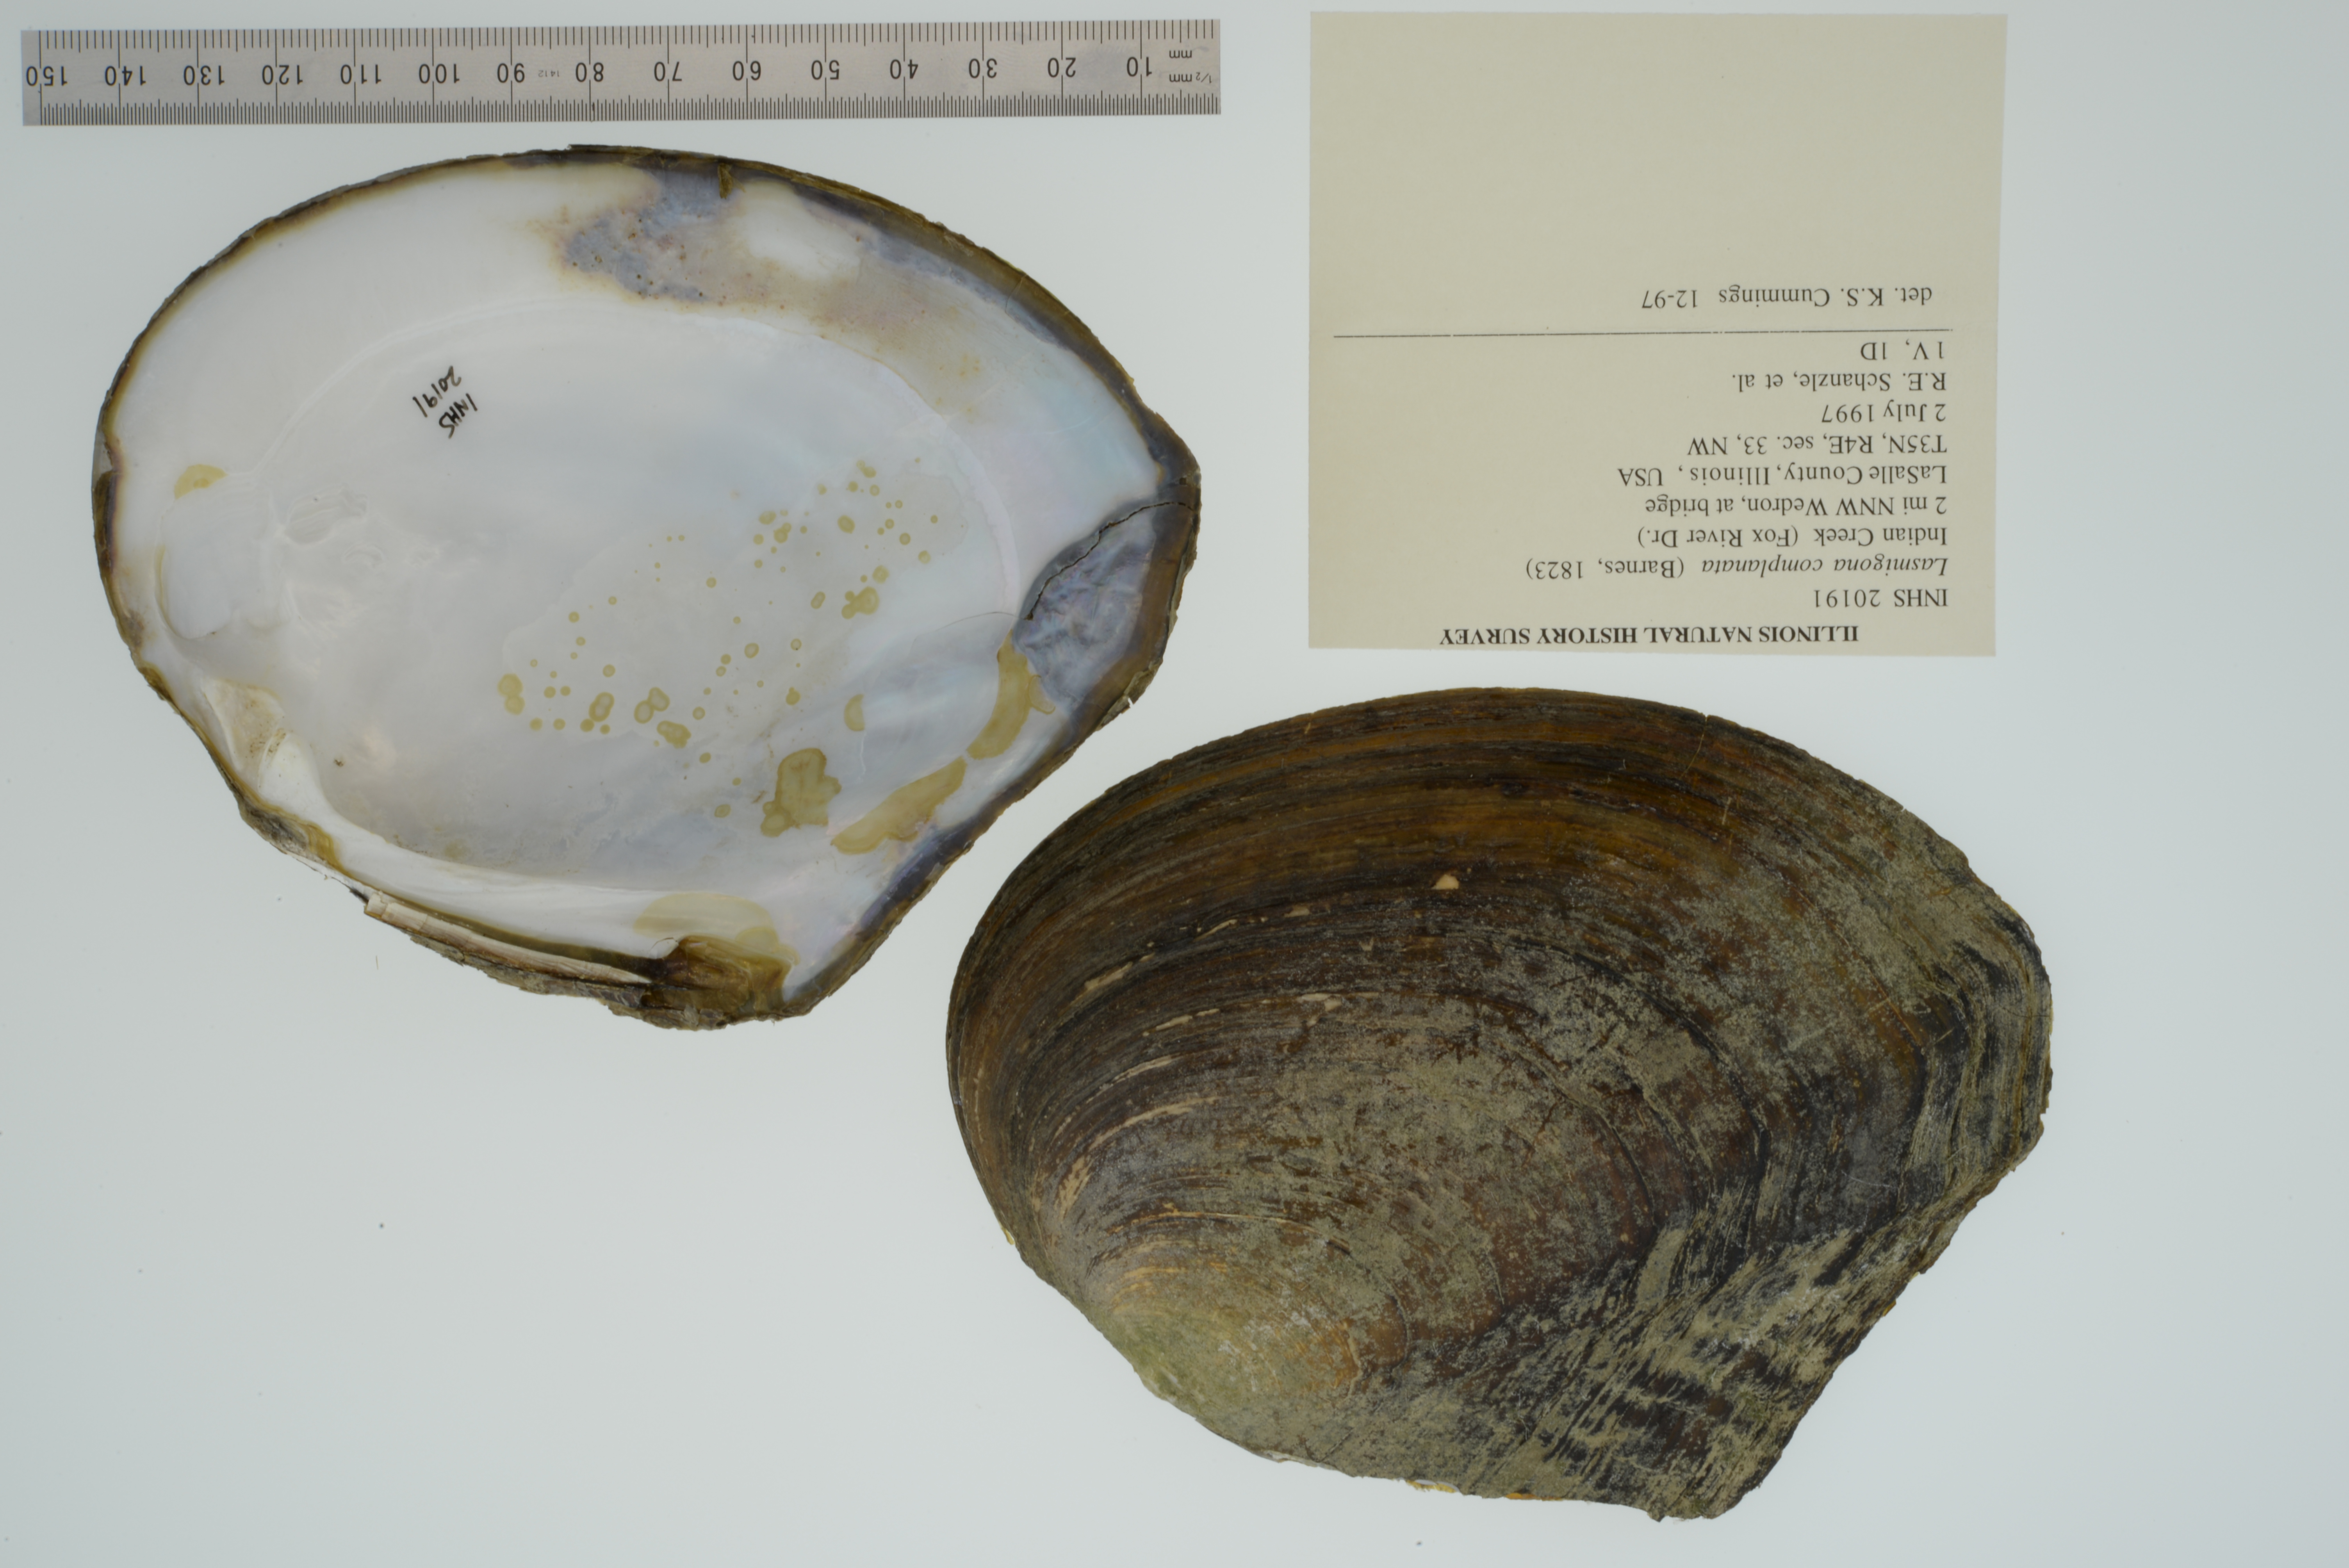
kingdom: Animalia
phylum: Mollusca
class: Bivalvia
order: Unionida
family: Unionidae
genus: Lasmigona
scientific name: Lasmigona complanata
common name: White heelsplitter
